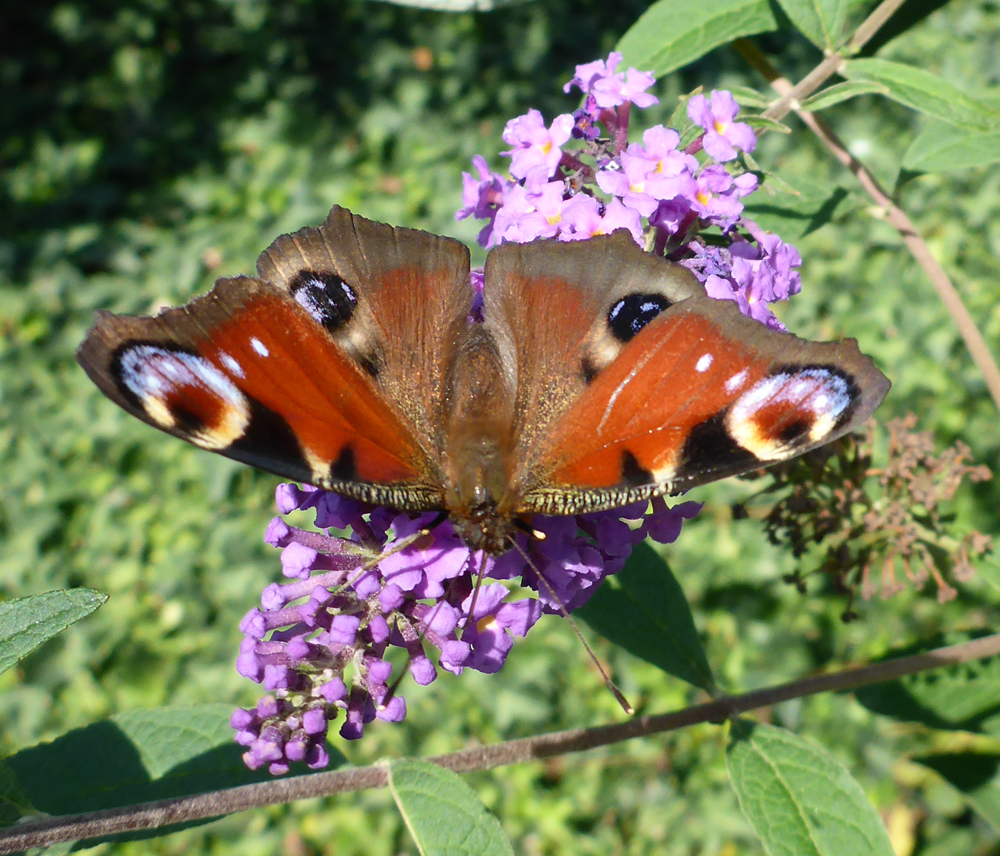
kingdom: Animalia
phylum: Arthropoda
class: Insecta
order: Lepidoptera
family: Nymphalidae
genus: Aglais
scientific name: Aglais io
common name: Peacock
